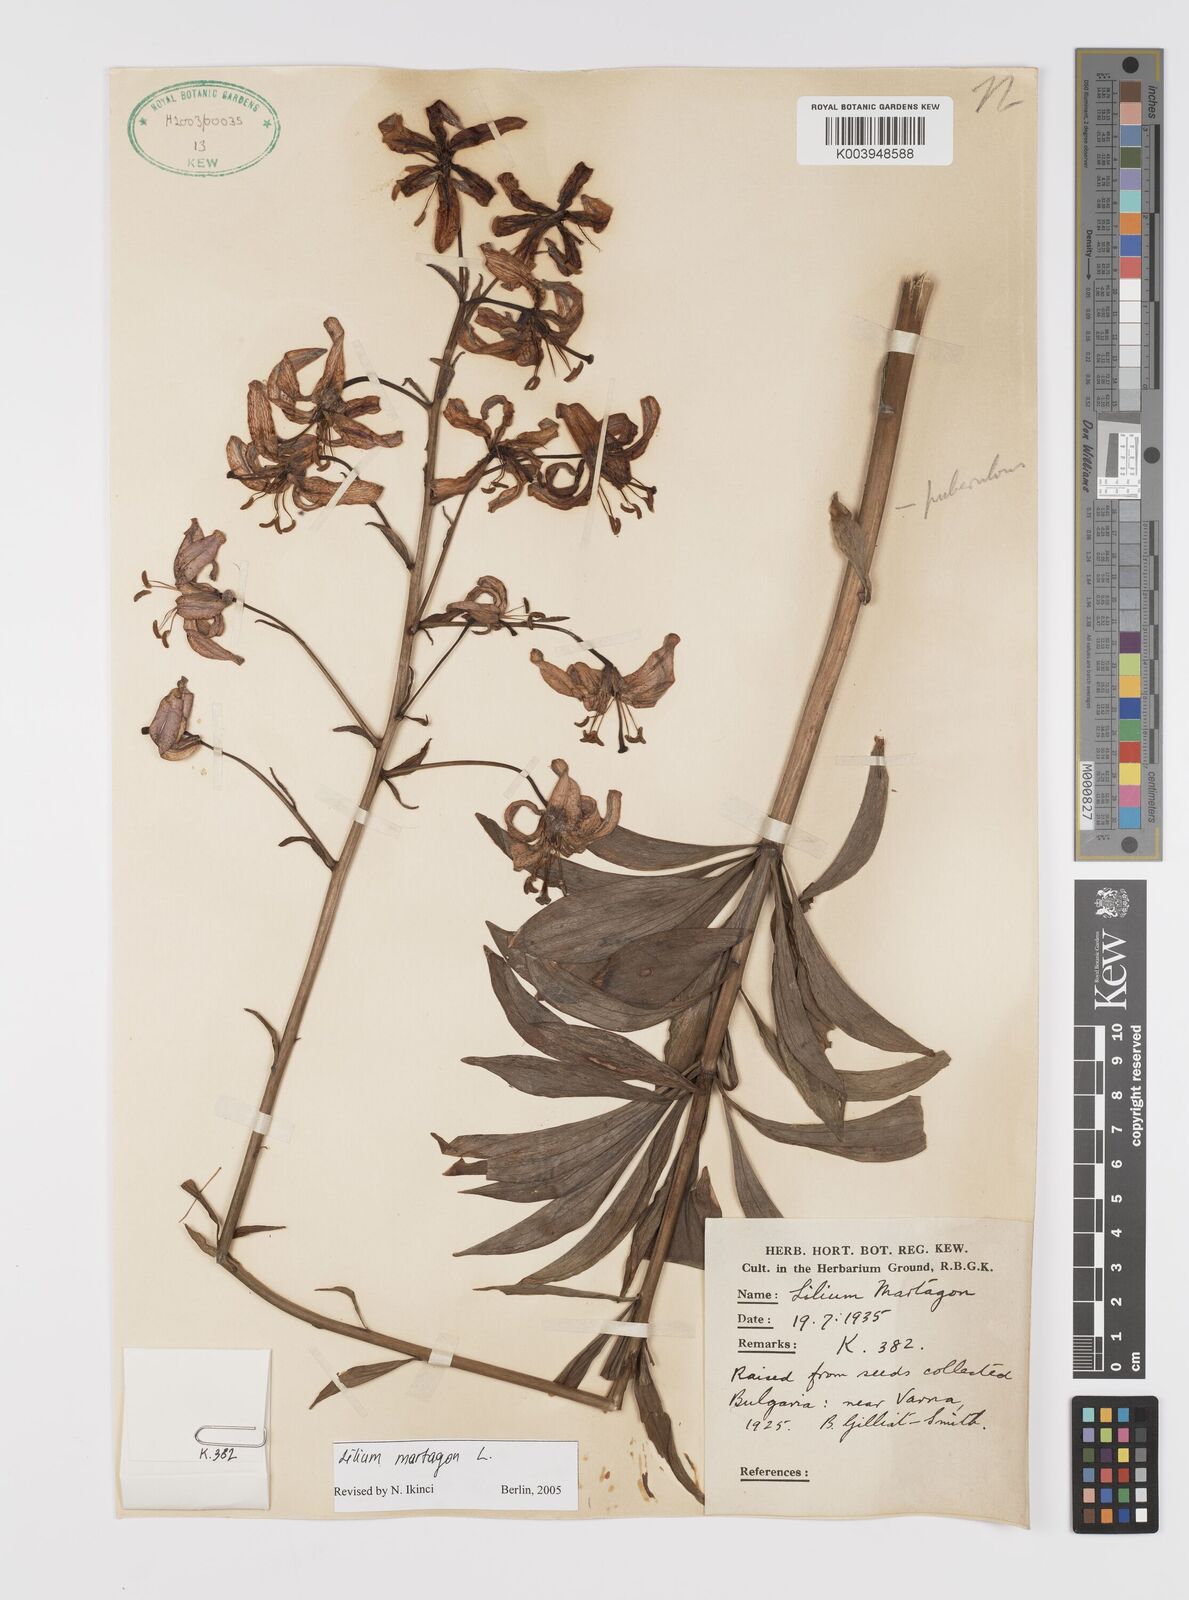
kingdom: Plantae
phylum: Tracheophyta
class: Liliopsida
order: Liliales
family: Liliaceae
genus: Lilium
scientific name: Lilium martagon
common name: Martagon lily
